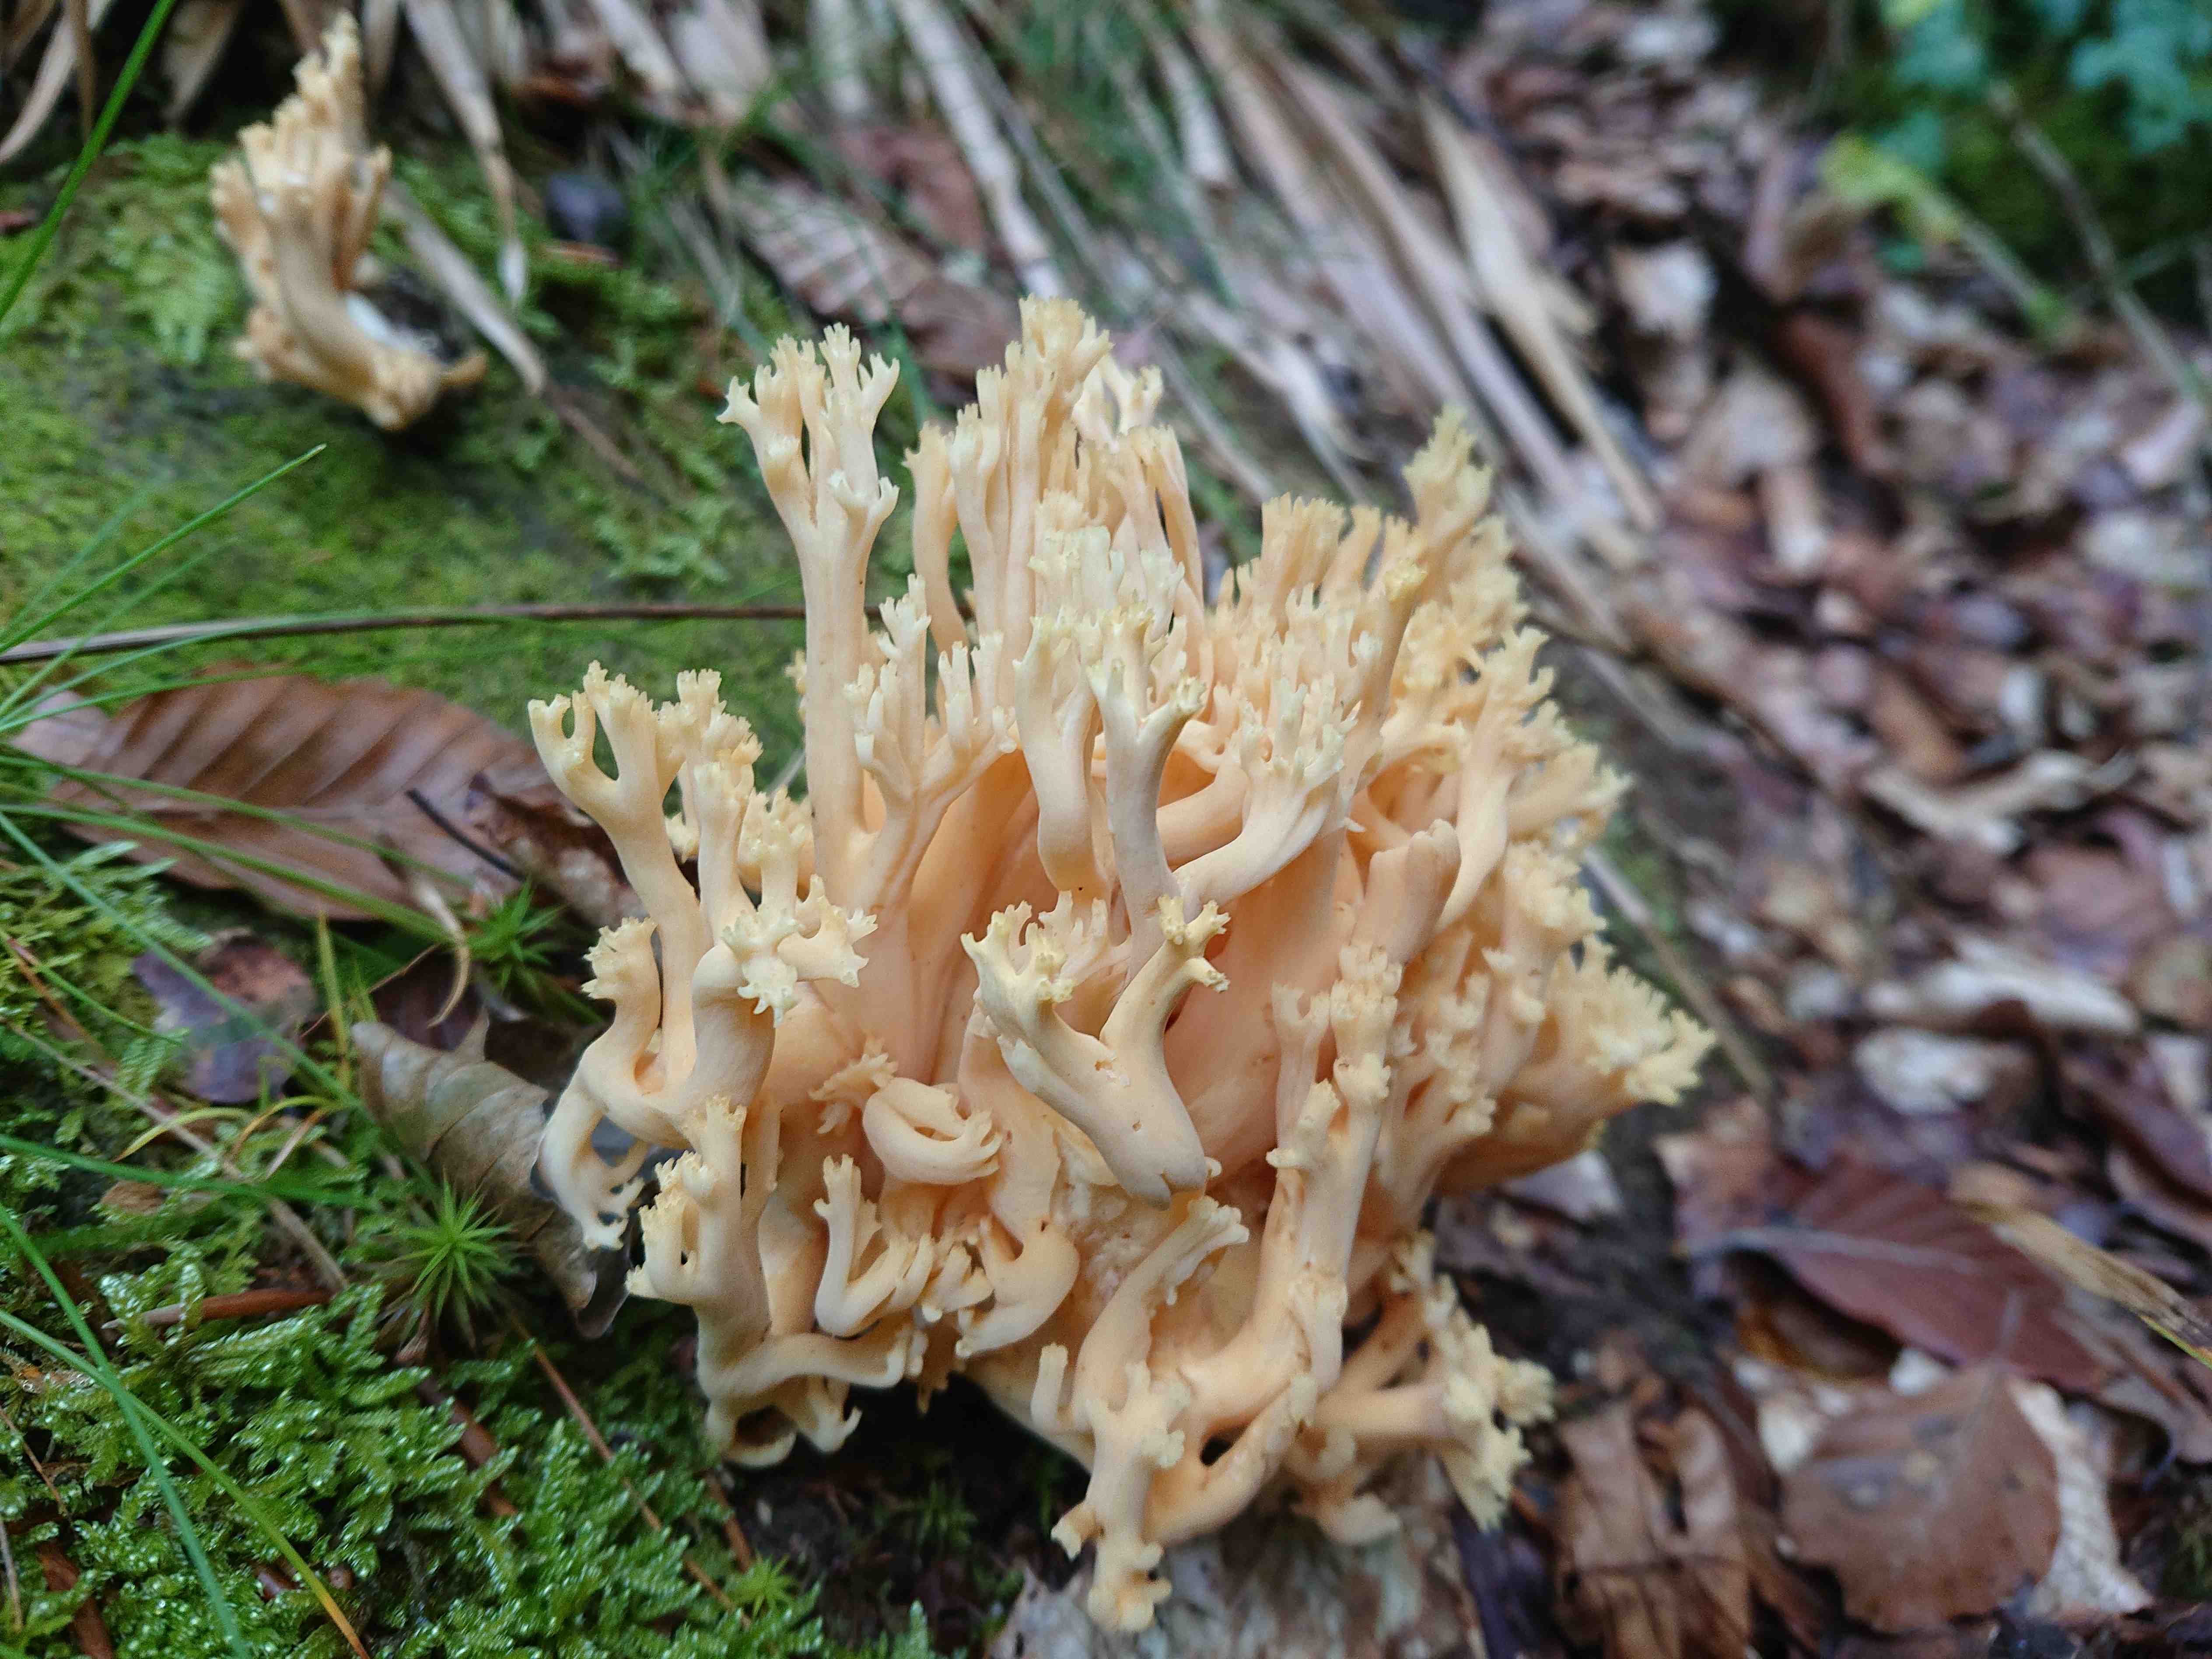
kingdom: Fungi
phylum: Basidiomycota
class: Agaricomycetes
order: Gomphales
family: Gomphaceae
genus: Ramaria
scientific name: Ramaria
